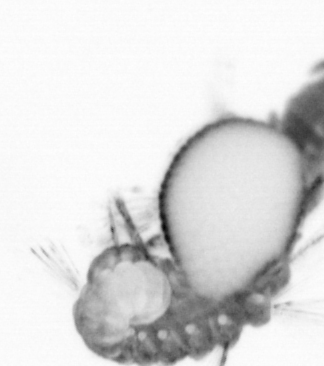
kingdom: Animalia
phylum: Annelida
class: Polychaeta
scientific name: Polychaeta
